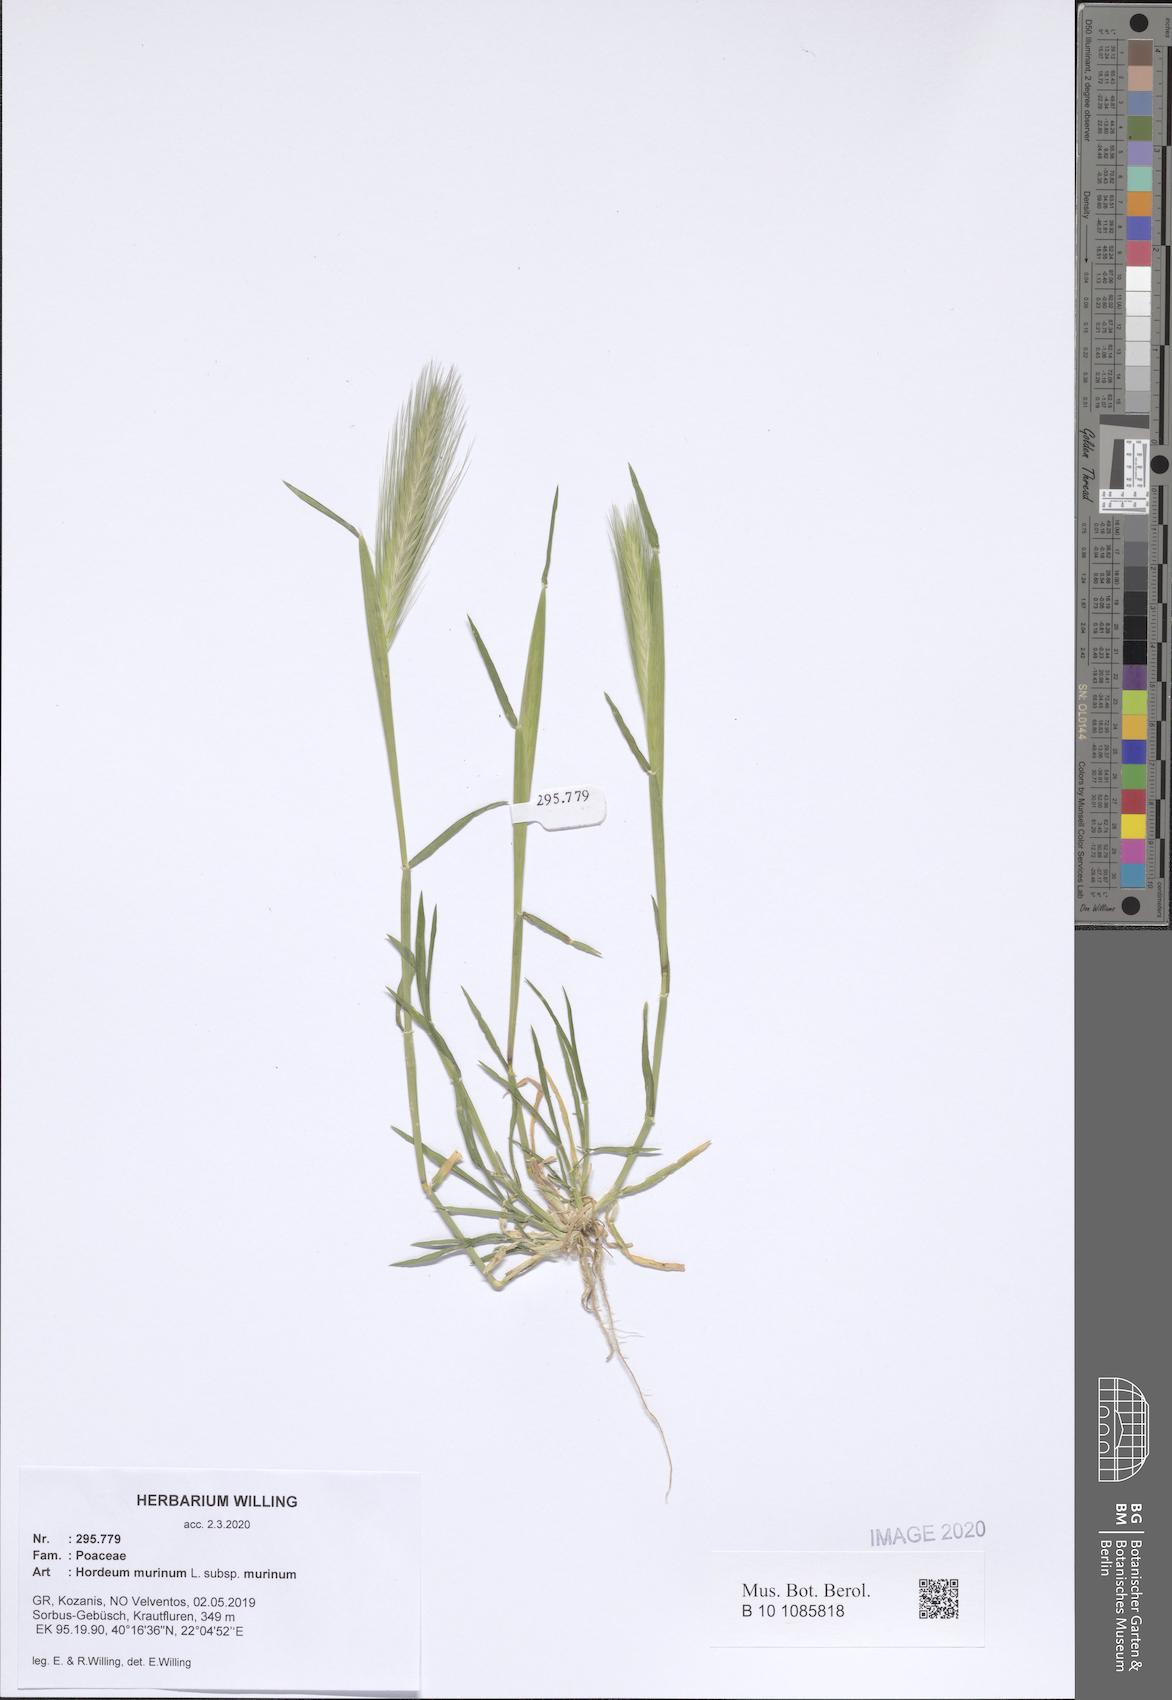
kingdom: Plantae
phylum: Tracheophyta
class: Liliopsida
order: Poales
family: Poaceae
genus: Hordeum
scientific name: Hordeum murinum
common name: Wall barley
